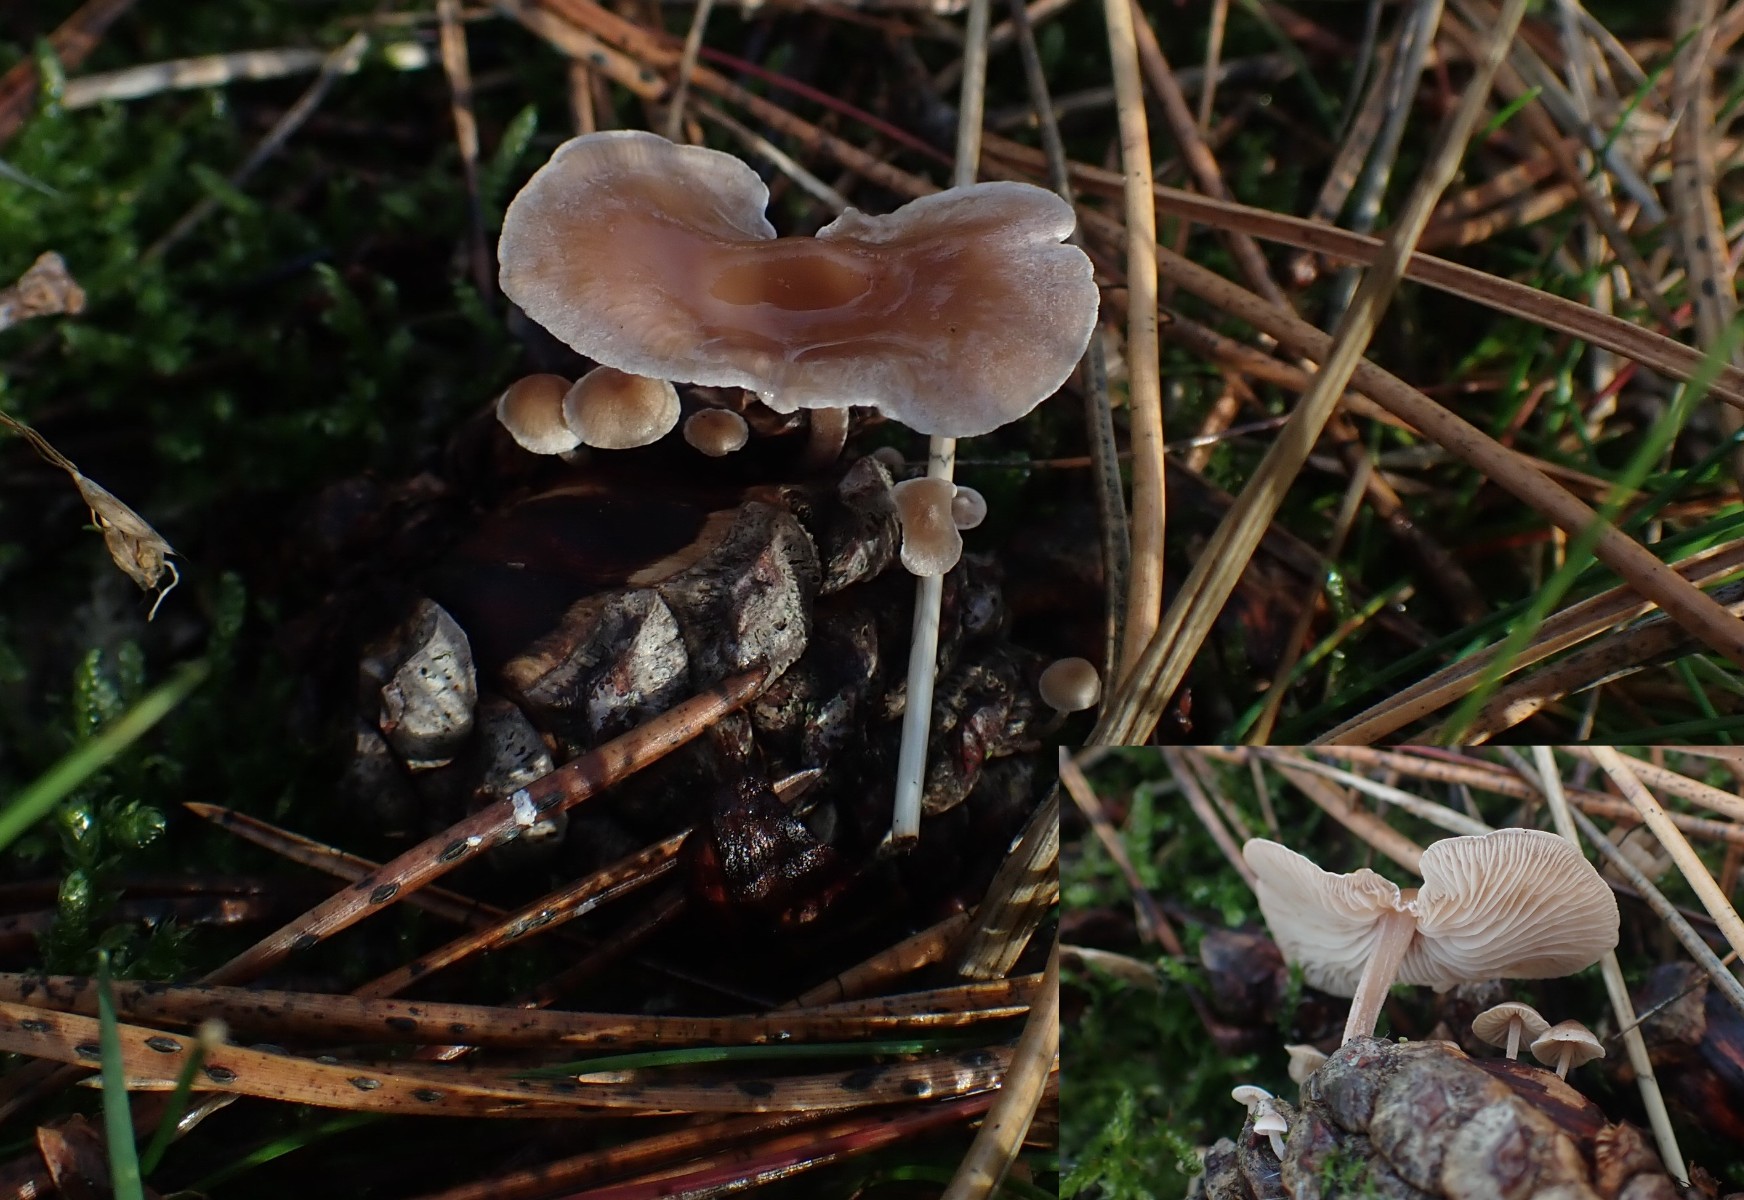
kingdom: Fungi
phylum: Basidiomycota
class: Agaricomycetes
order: Agaricales
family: Marasmiaceae
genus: Baeospora
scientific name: Baeospora myosura
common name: koglebruskhat
